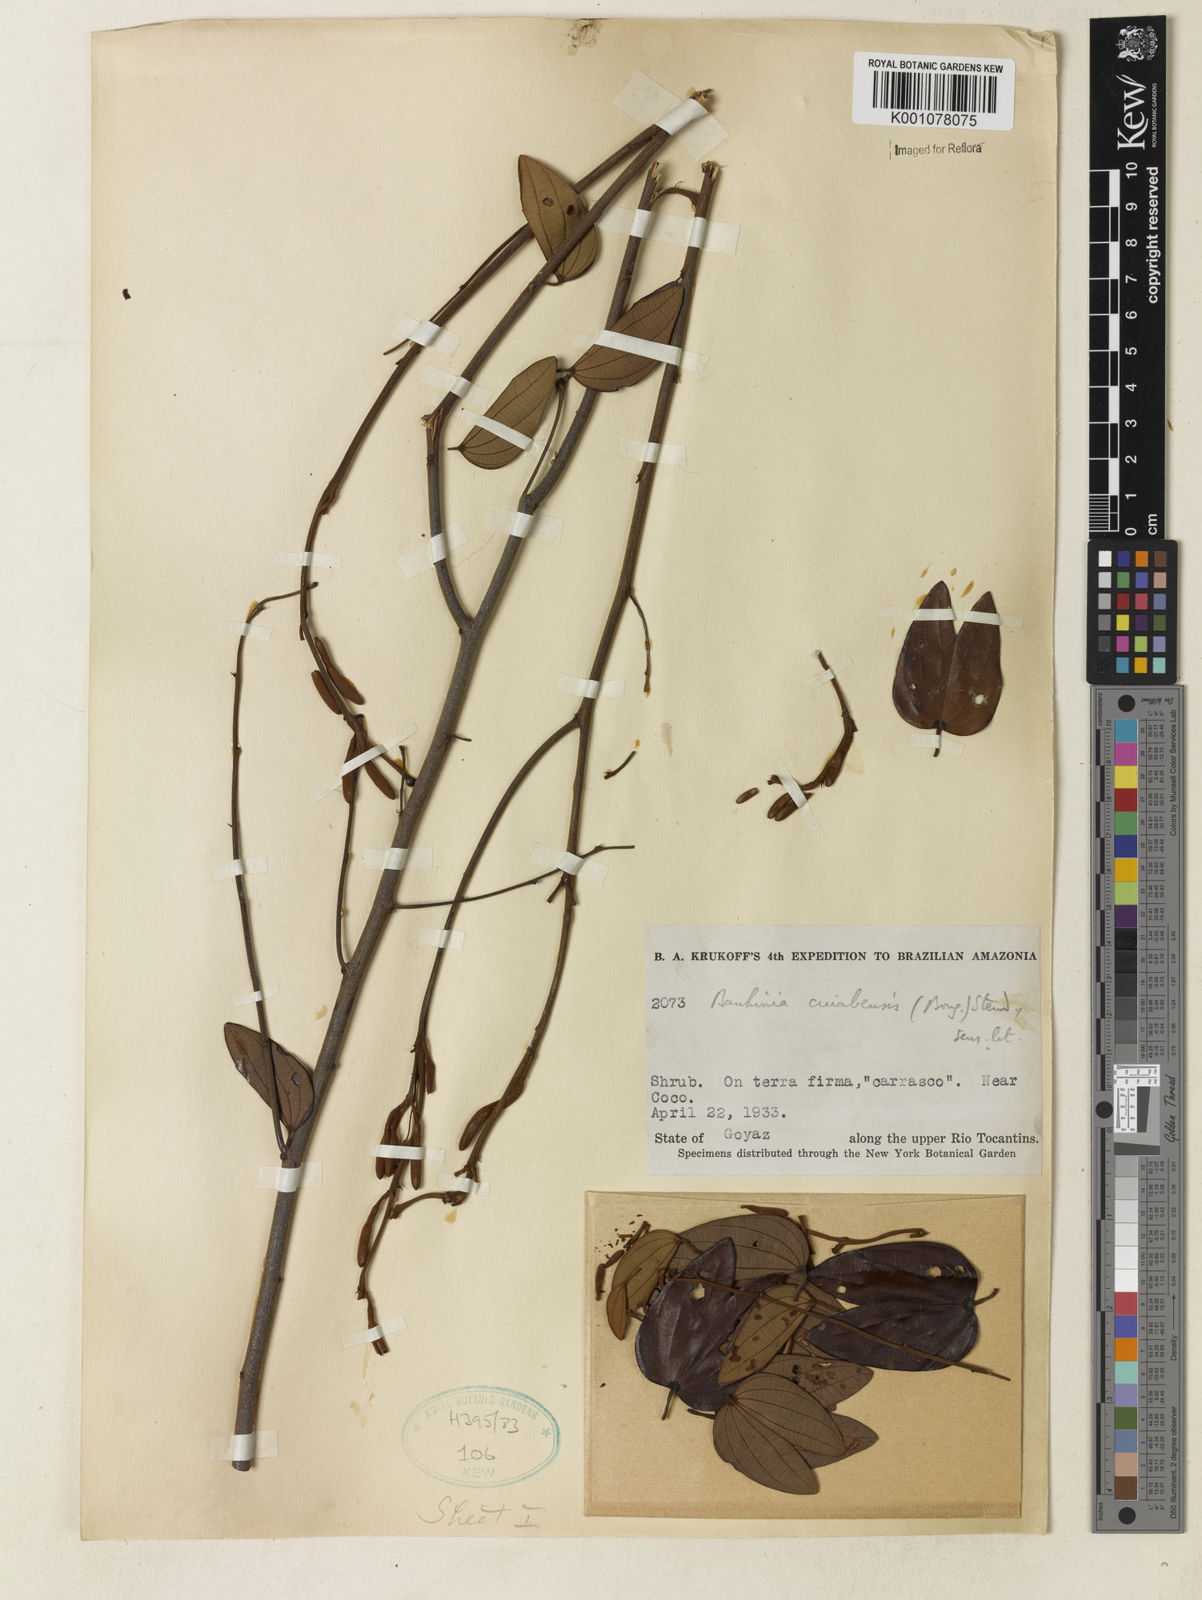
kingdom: Plantae
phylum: Tracheophyta
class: Magnoliopsida
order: Fabales
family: Fabaceae
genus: Bauhinia
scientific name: Bauhinia ungulata
